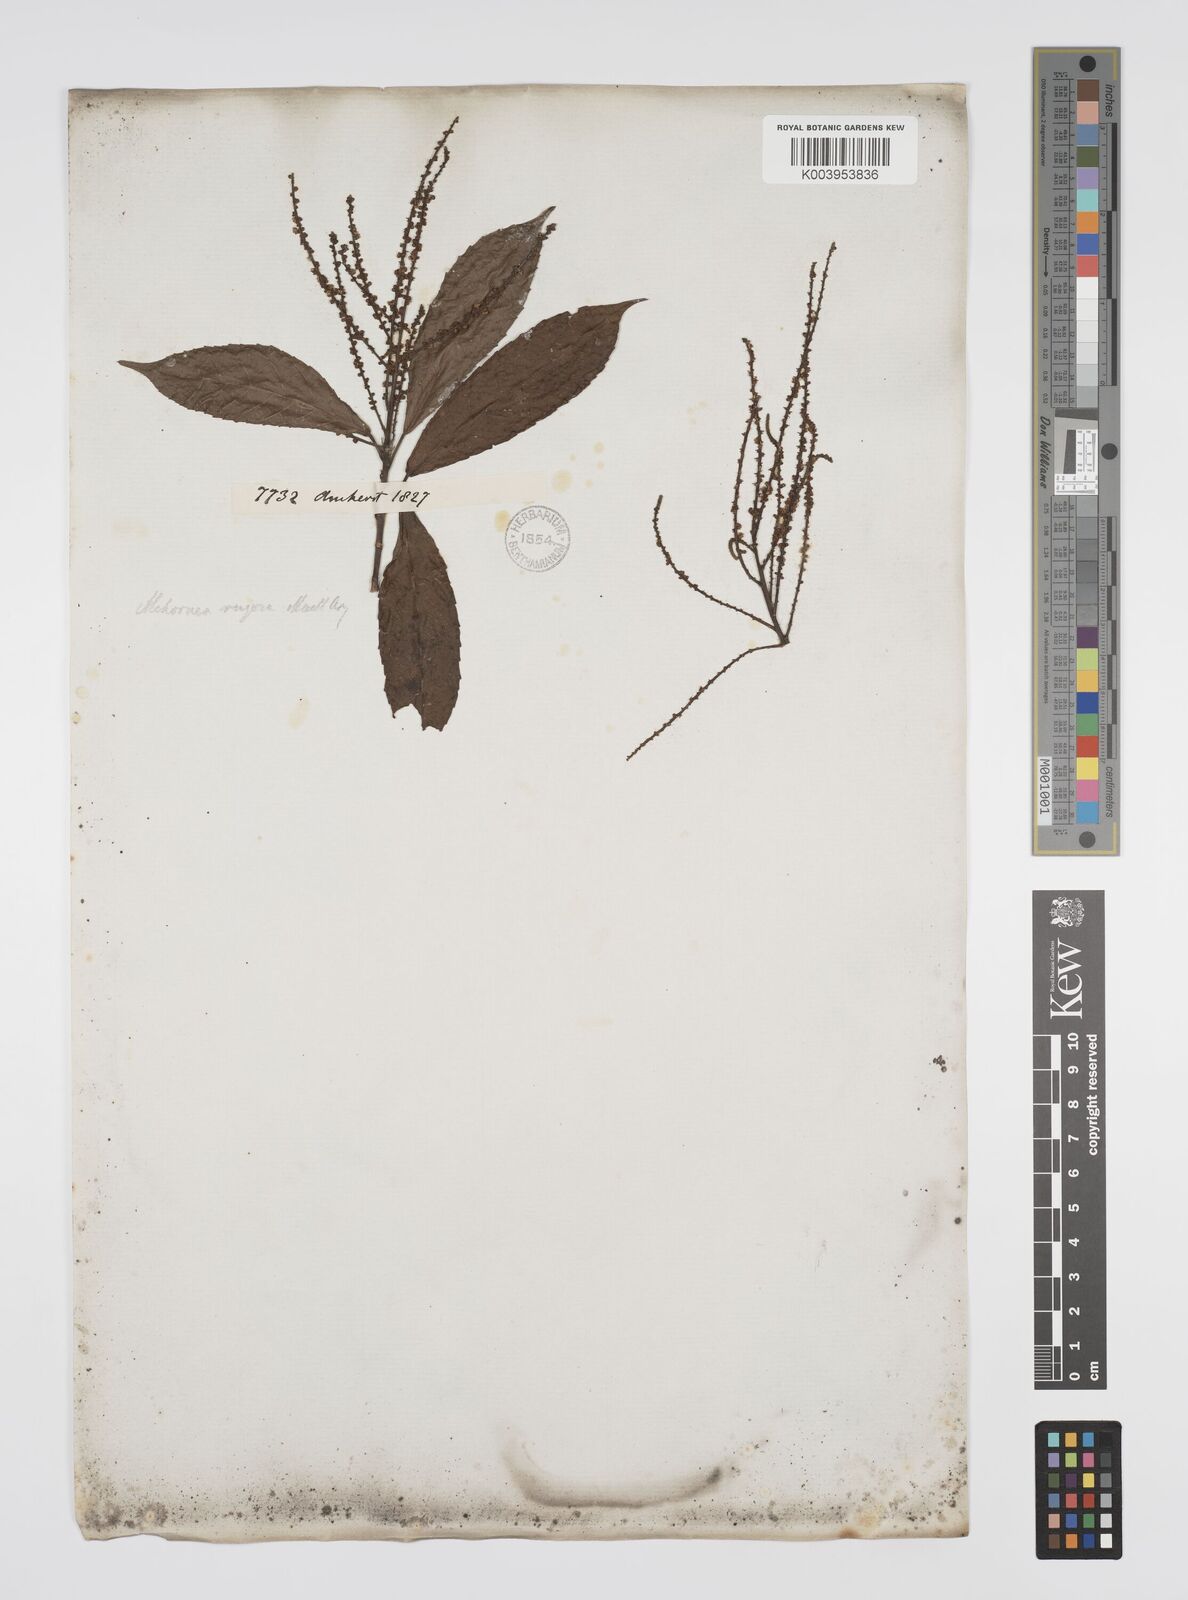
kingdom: Plantae
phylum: Tracheophyta
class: Magnoliopsida
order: Malpighiales
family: Euphorbiaceae
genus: Alchornea
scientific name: Alchornea rugosa
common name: Alchorntree
